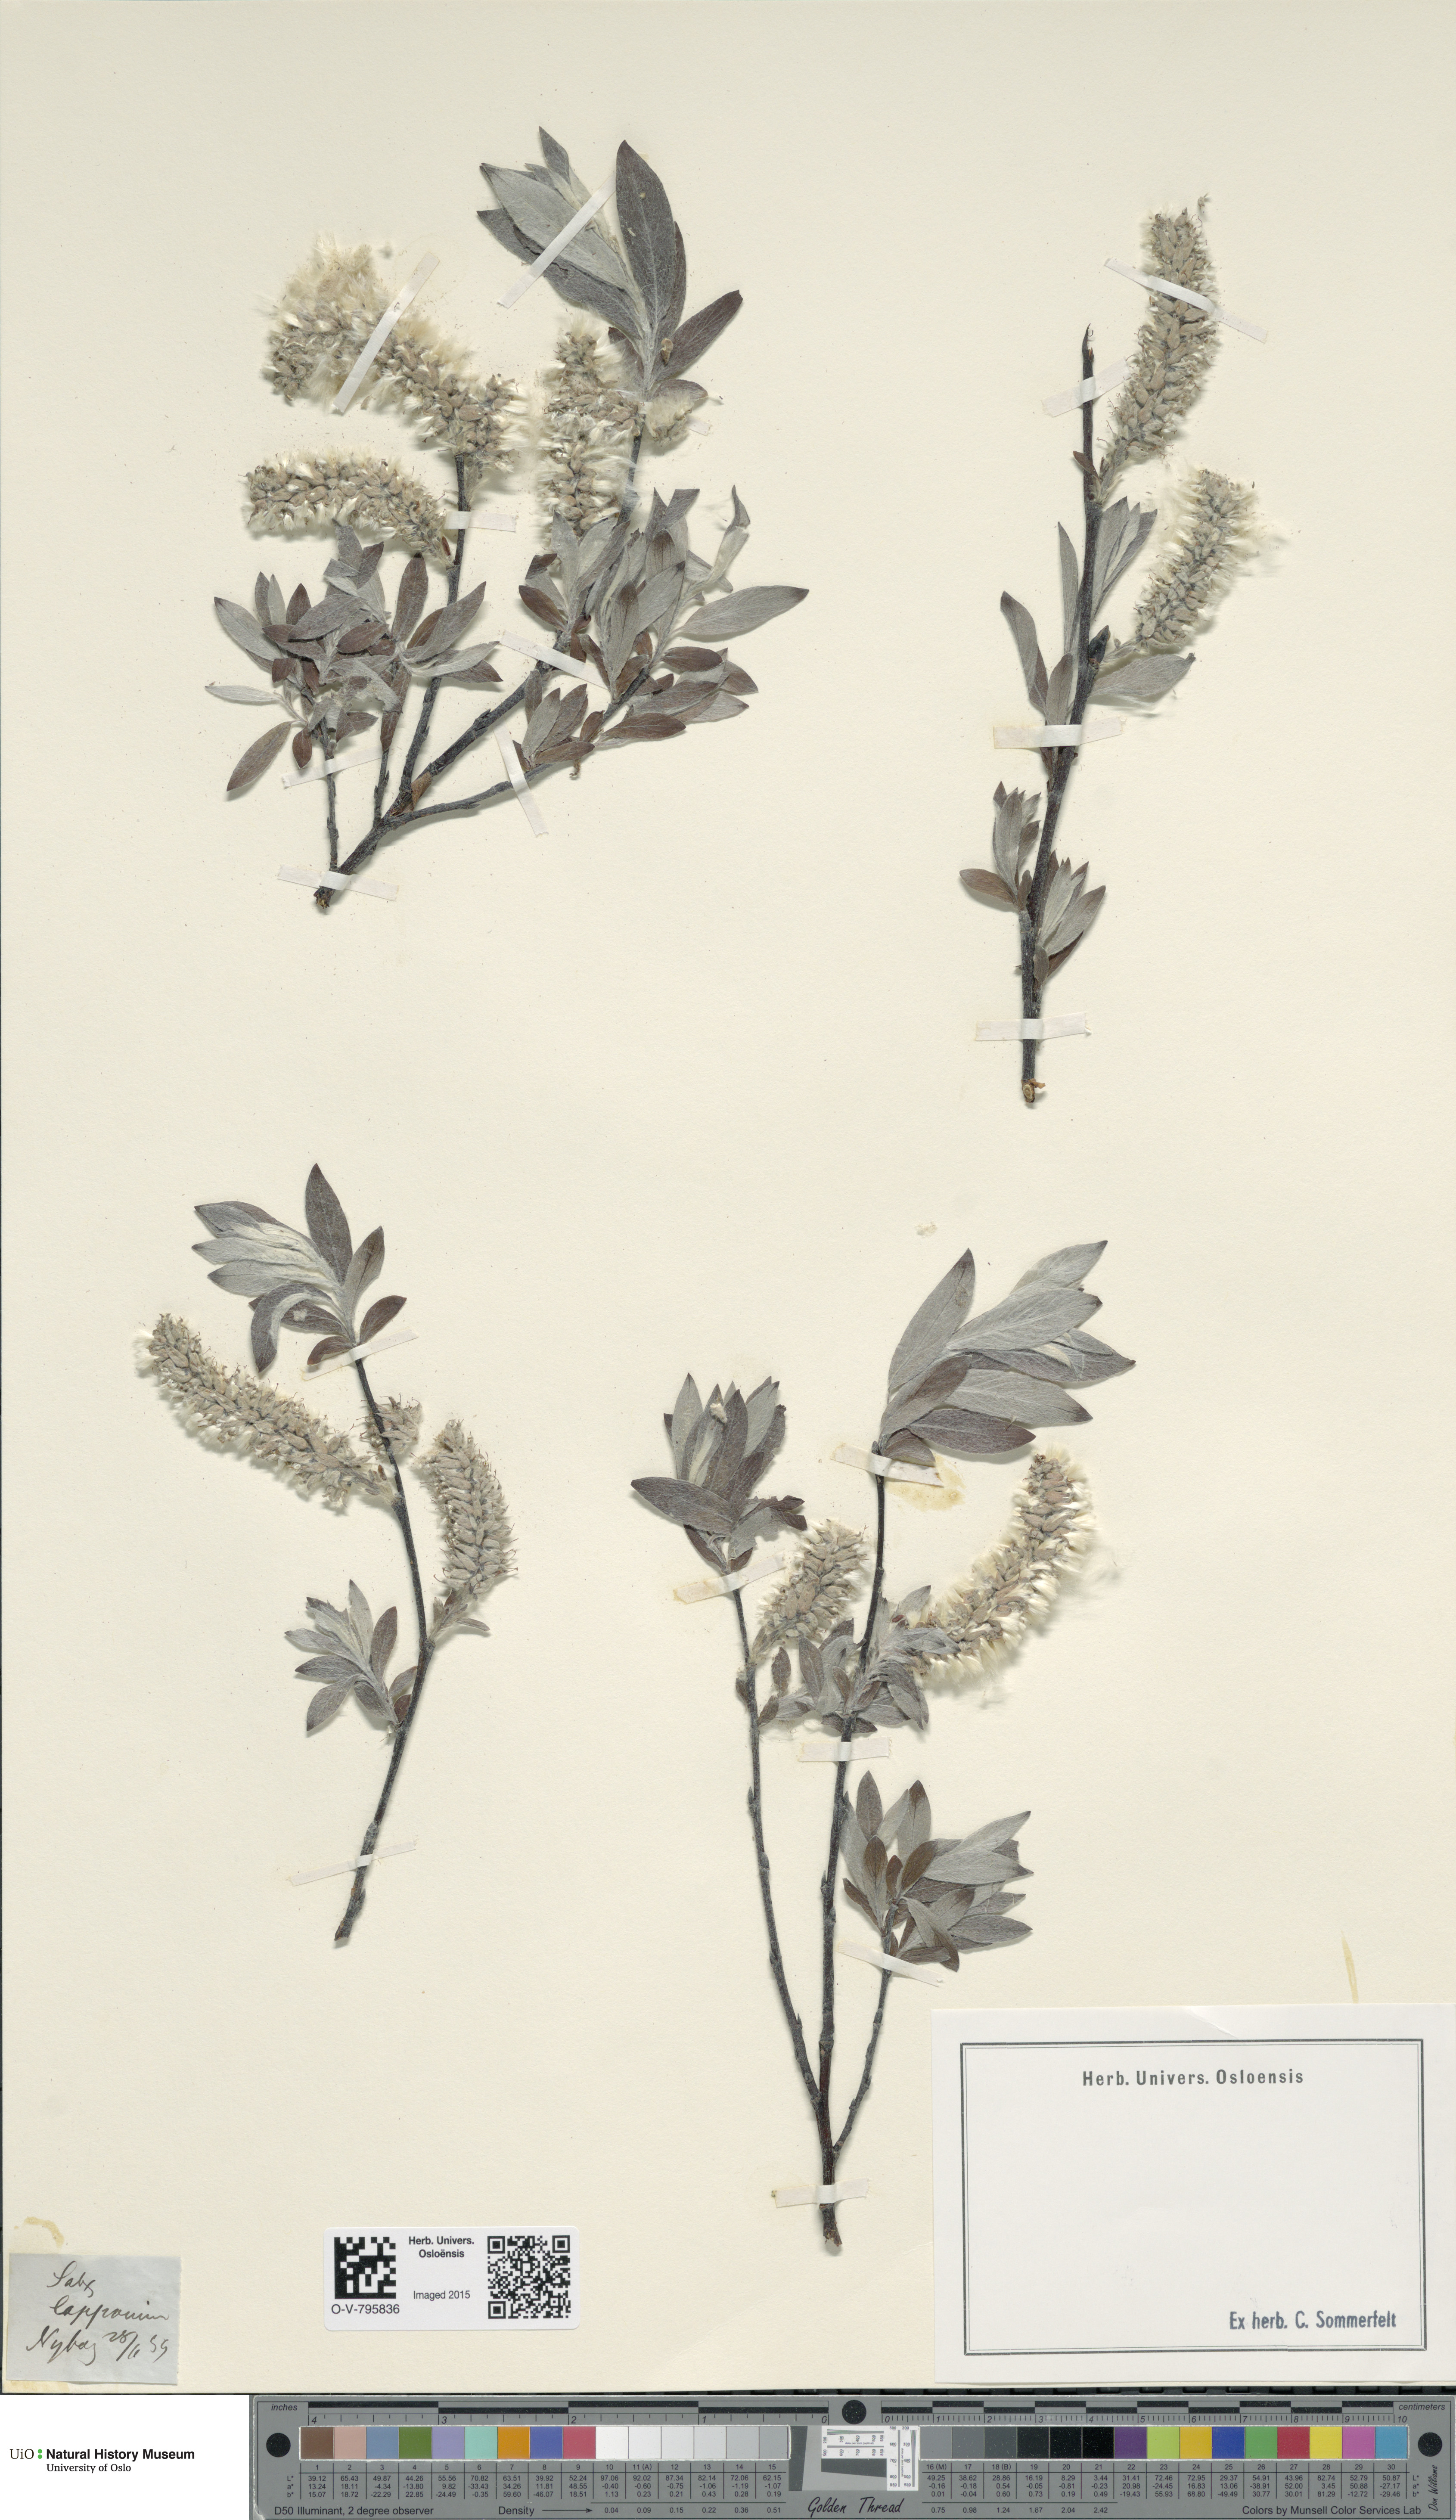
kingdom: Plantae
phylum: Tracheophyta
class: Magnoliopsida
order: Malpighiales
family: Salicaceae
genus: Salix
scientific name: Salix lapponum
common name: Downy willow
